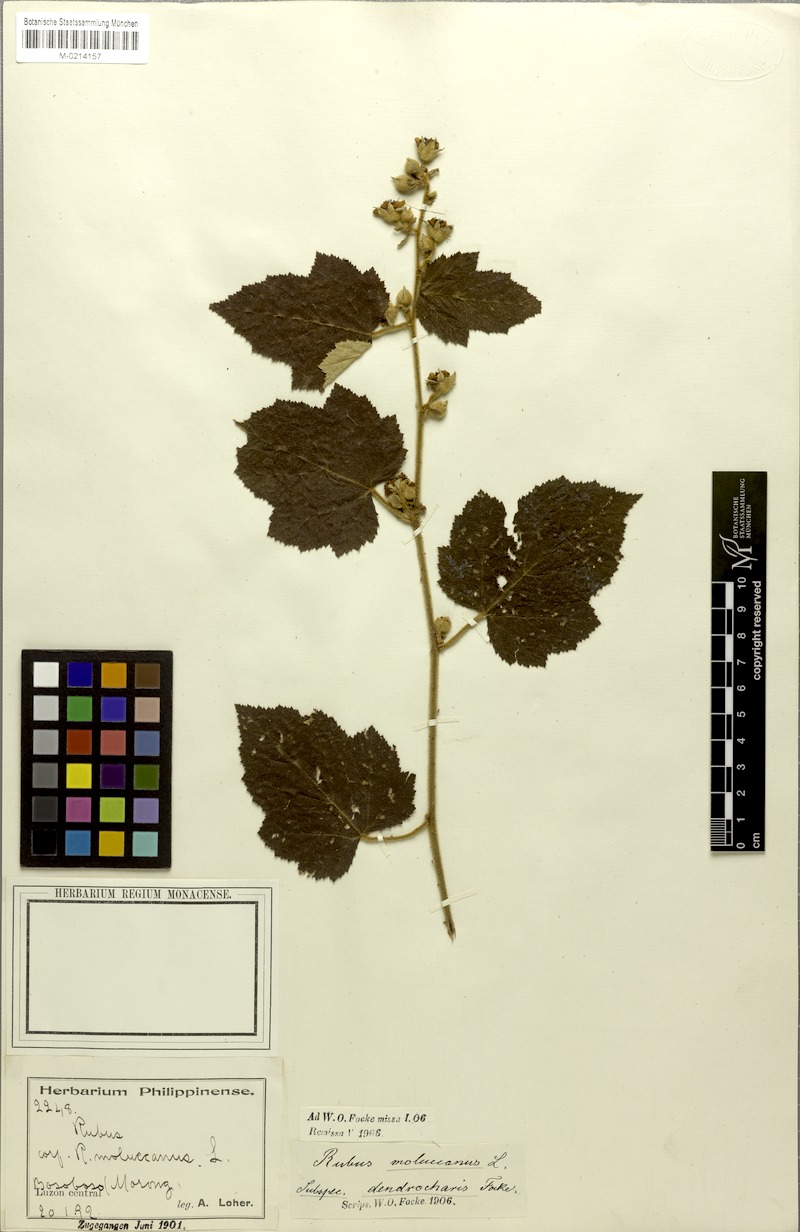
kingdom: Plantae
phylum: Tracheophyta
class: Magnoliopsida
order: Rosales
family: Rosaceae
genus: Rubus
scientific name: Rubus moluccanus
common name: Wild raspberry
